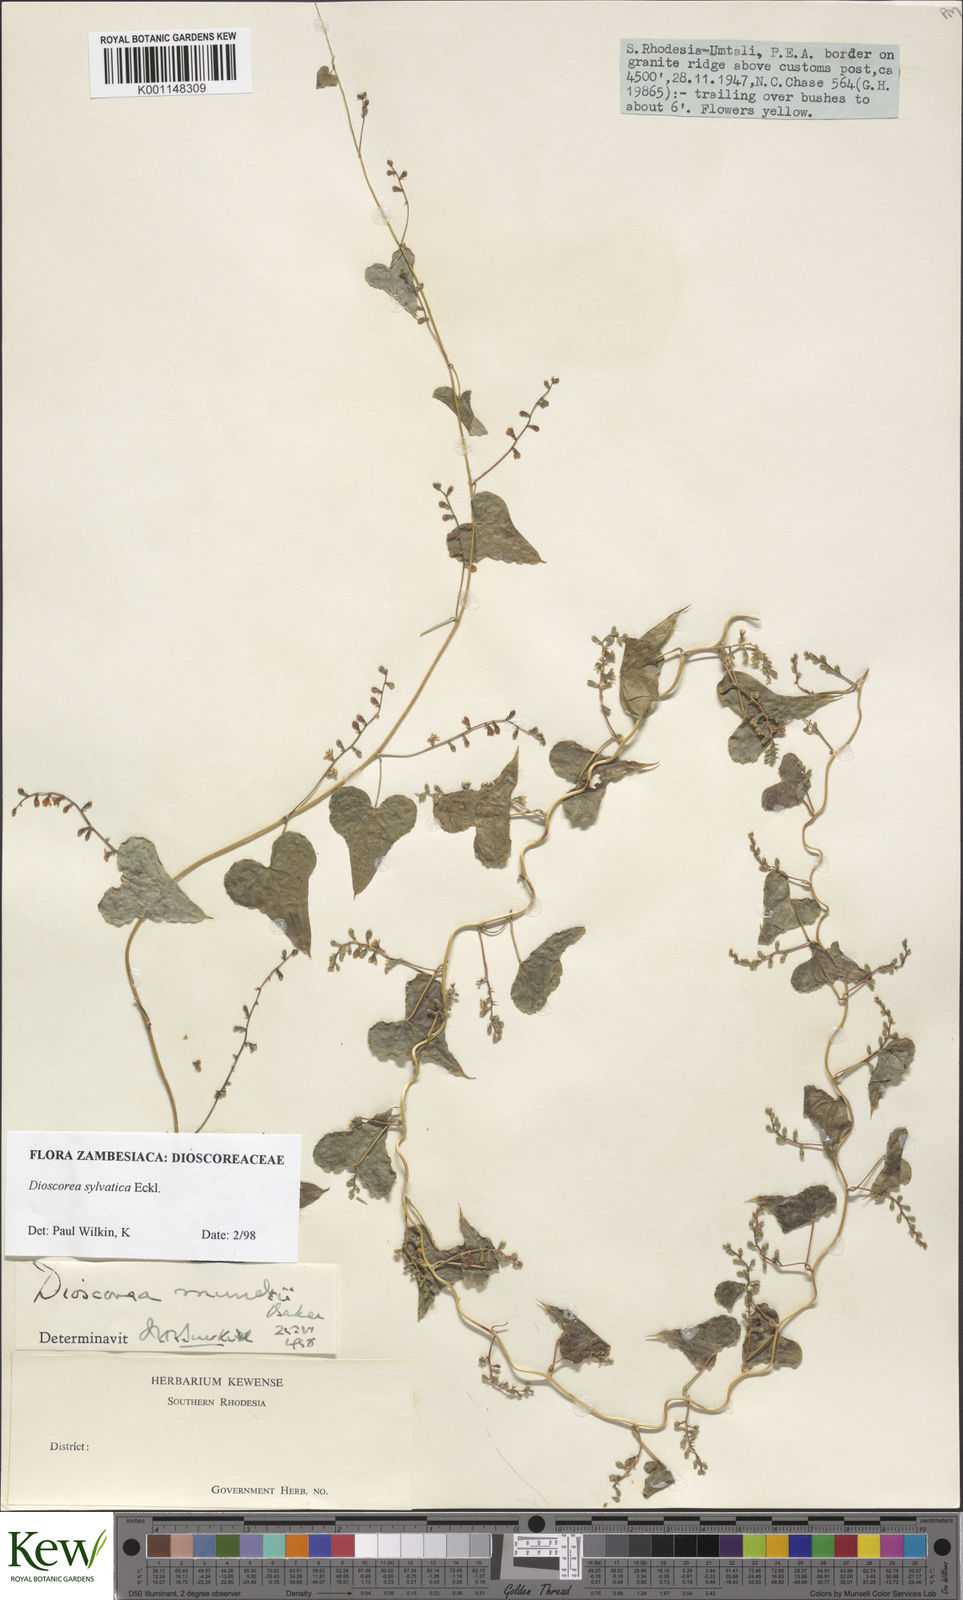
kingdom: Plantae
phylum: Tracheophyta
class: Liliopsida
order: Dioscoreales
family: Dioscoreaceae
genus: Dioscorea
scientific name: Dioscorea sylvatica
